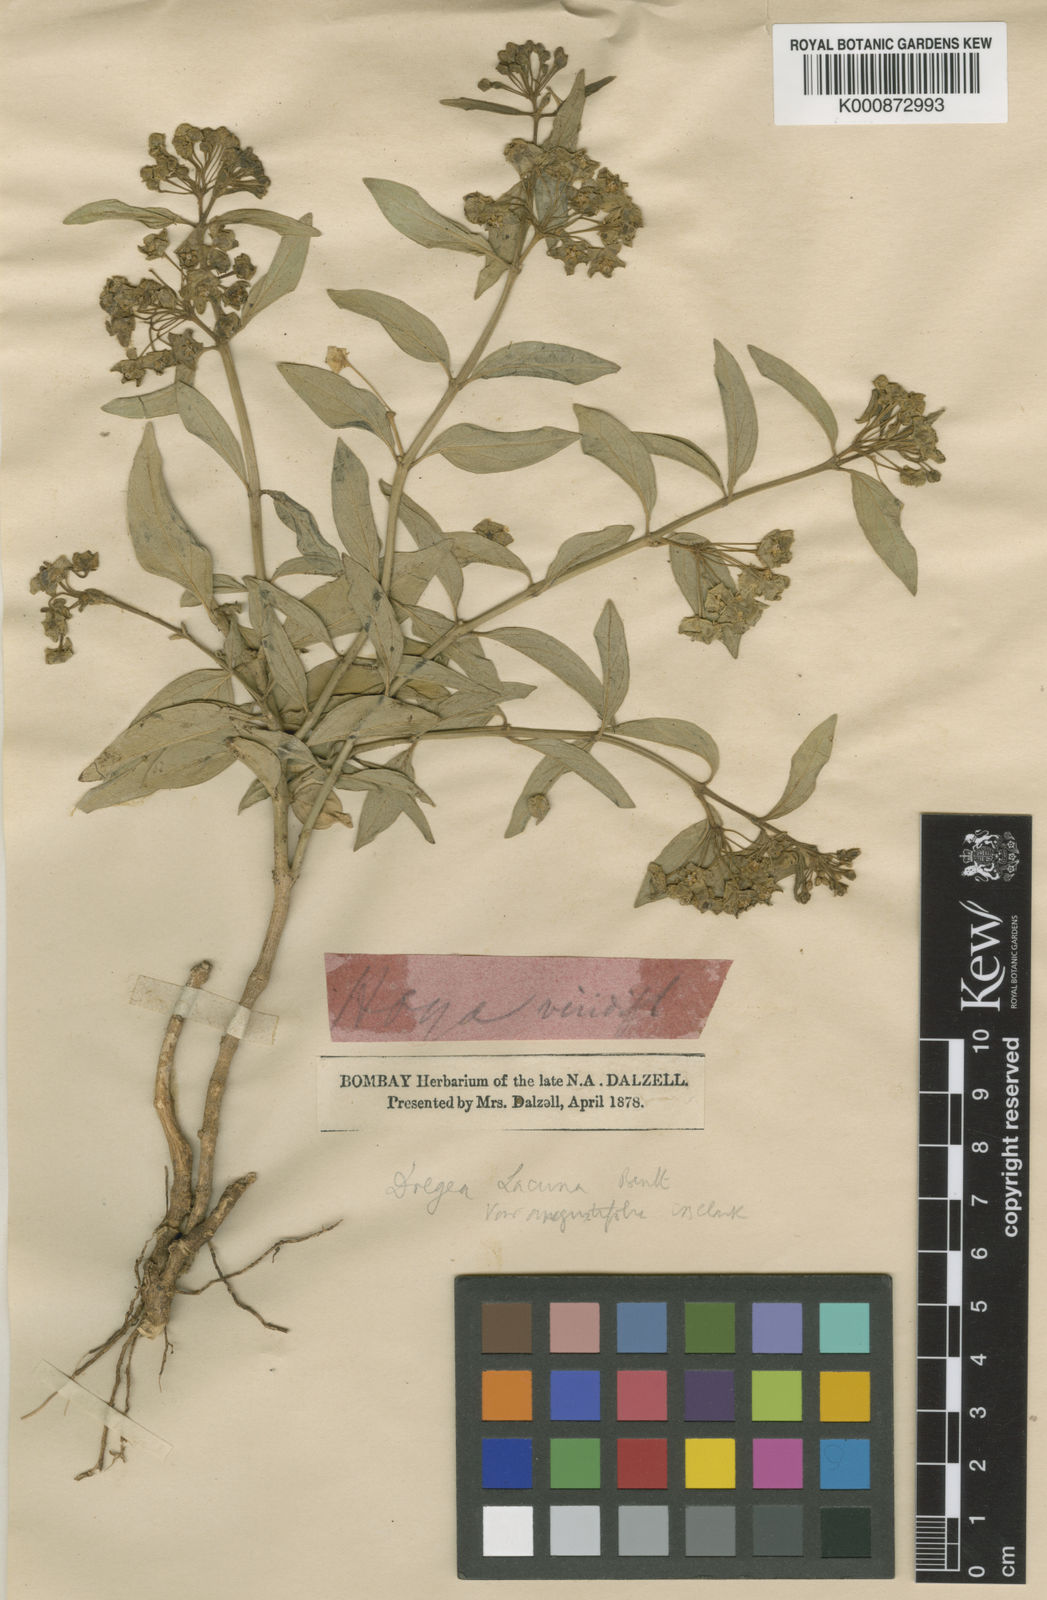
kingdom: Plantae
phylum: Tracheophyta
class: Magnoliopsida
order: Gentianales
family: Apocynaceae
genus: Stephanotis
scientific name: Stephanotis volubilis
